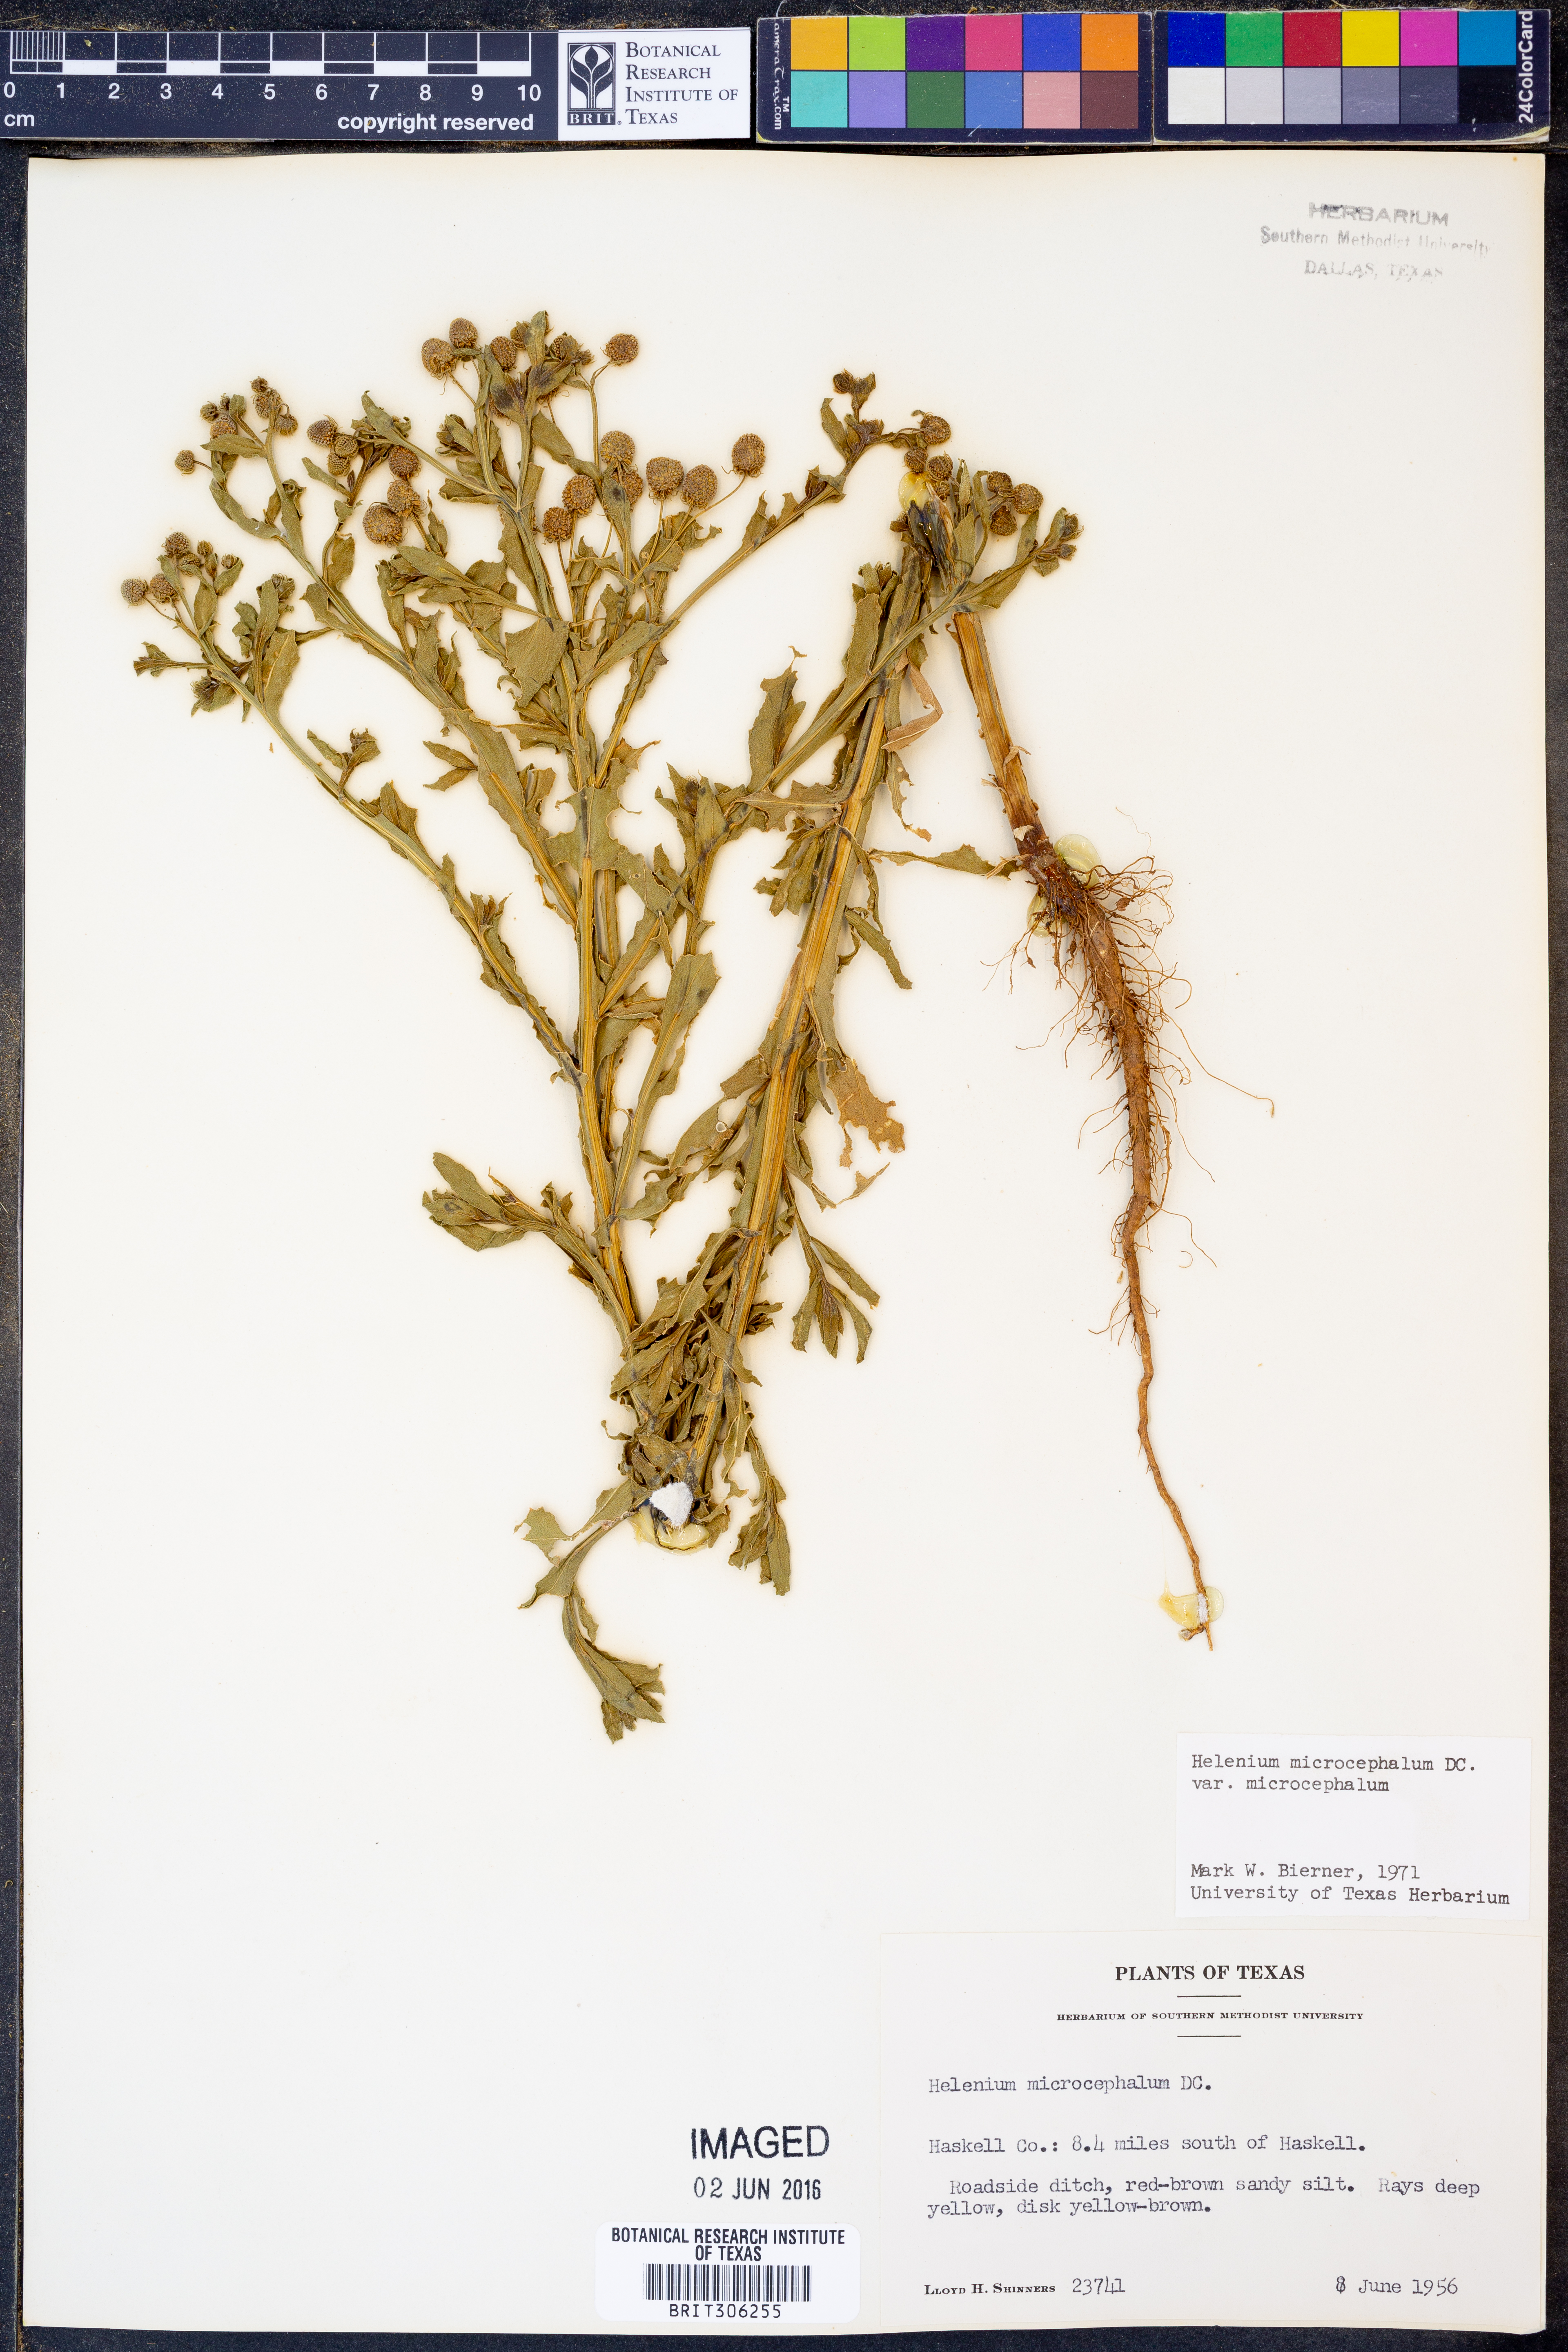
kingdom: Plantae
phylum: Tracheophyta
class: Magnoliopsida
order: Asterales
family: Asteraceae
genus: Helenium
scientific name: Helenium microcephalum
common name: Smallhead sneezeweed
